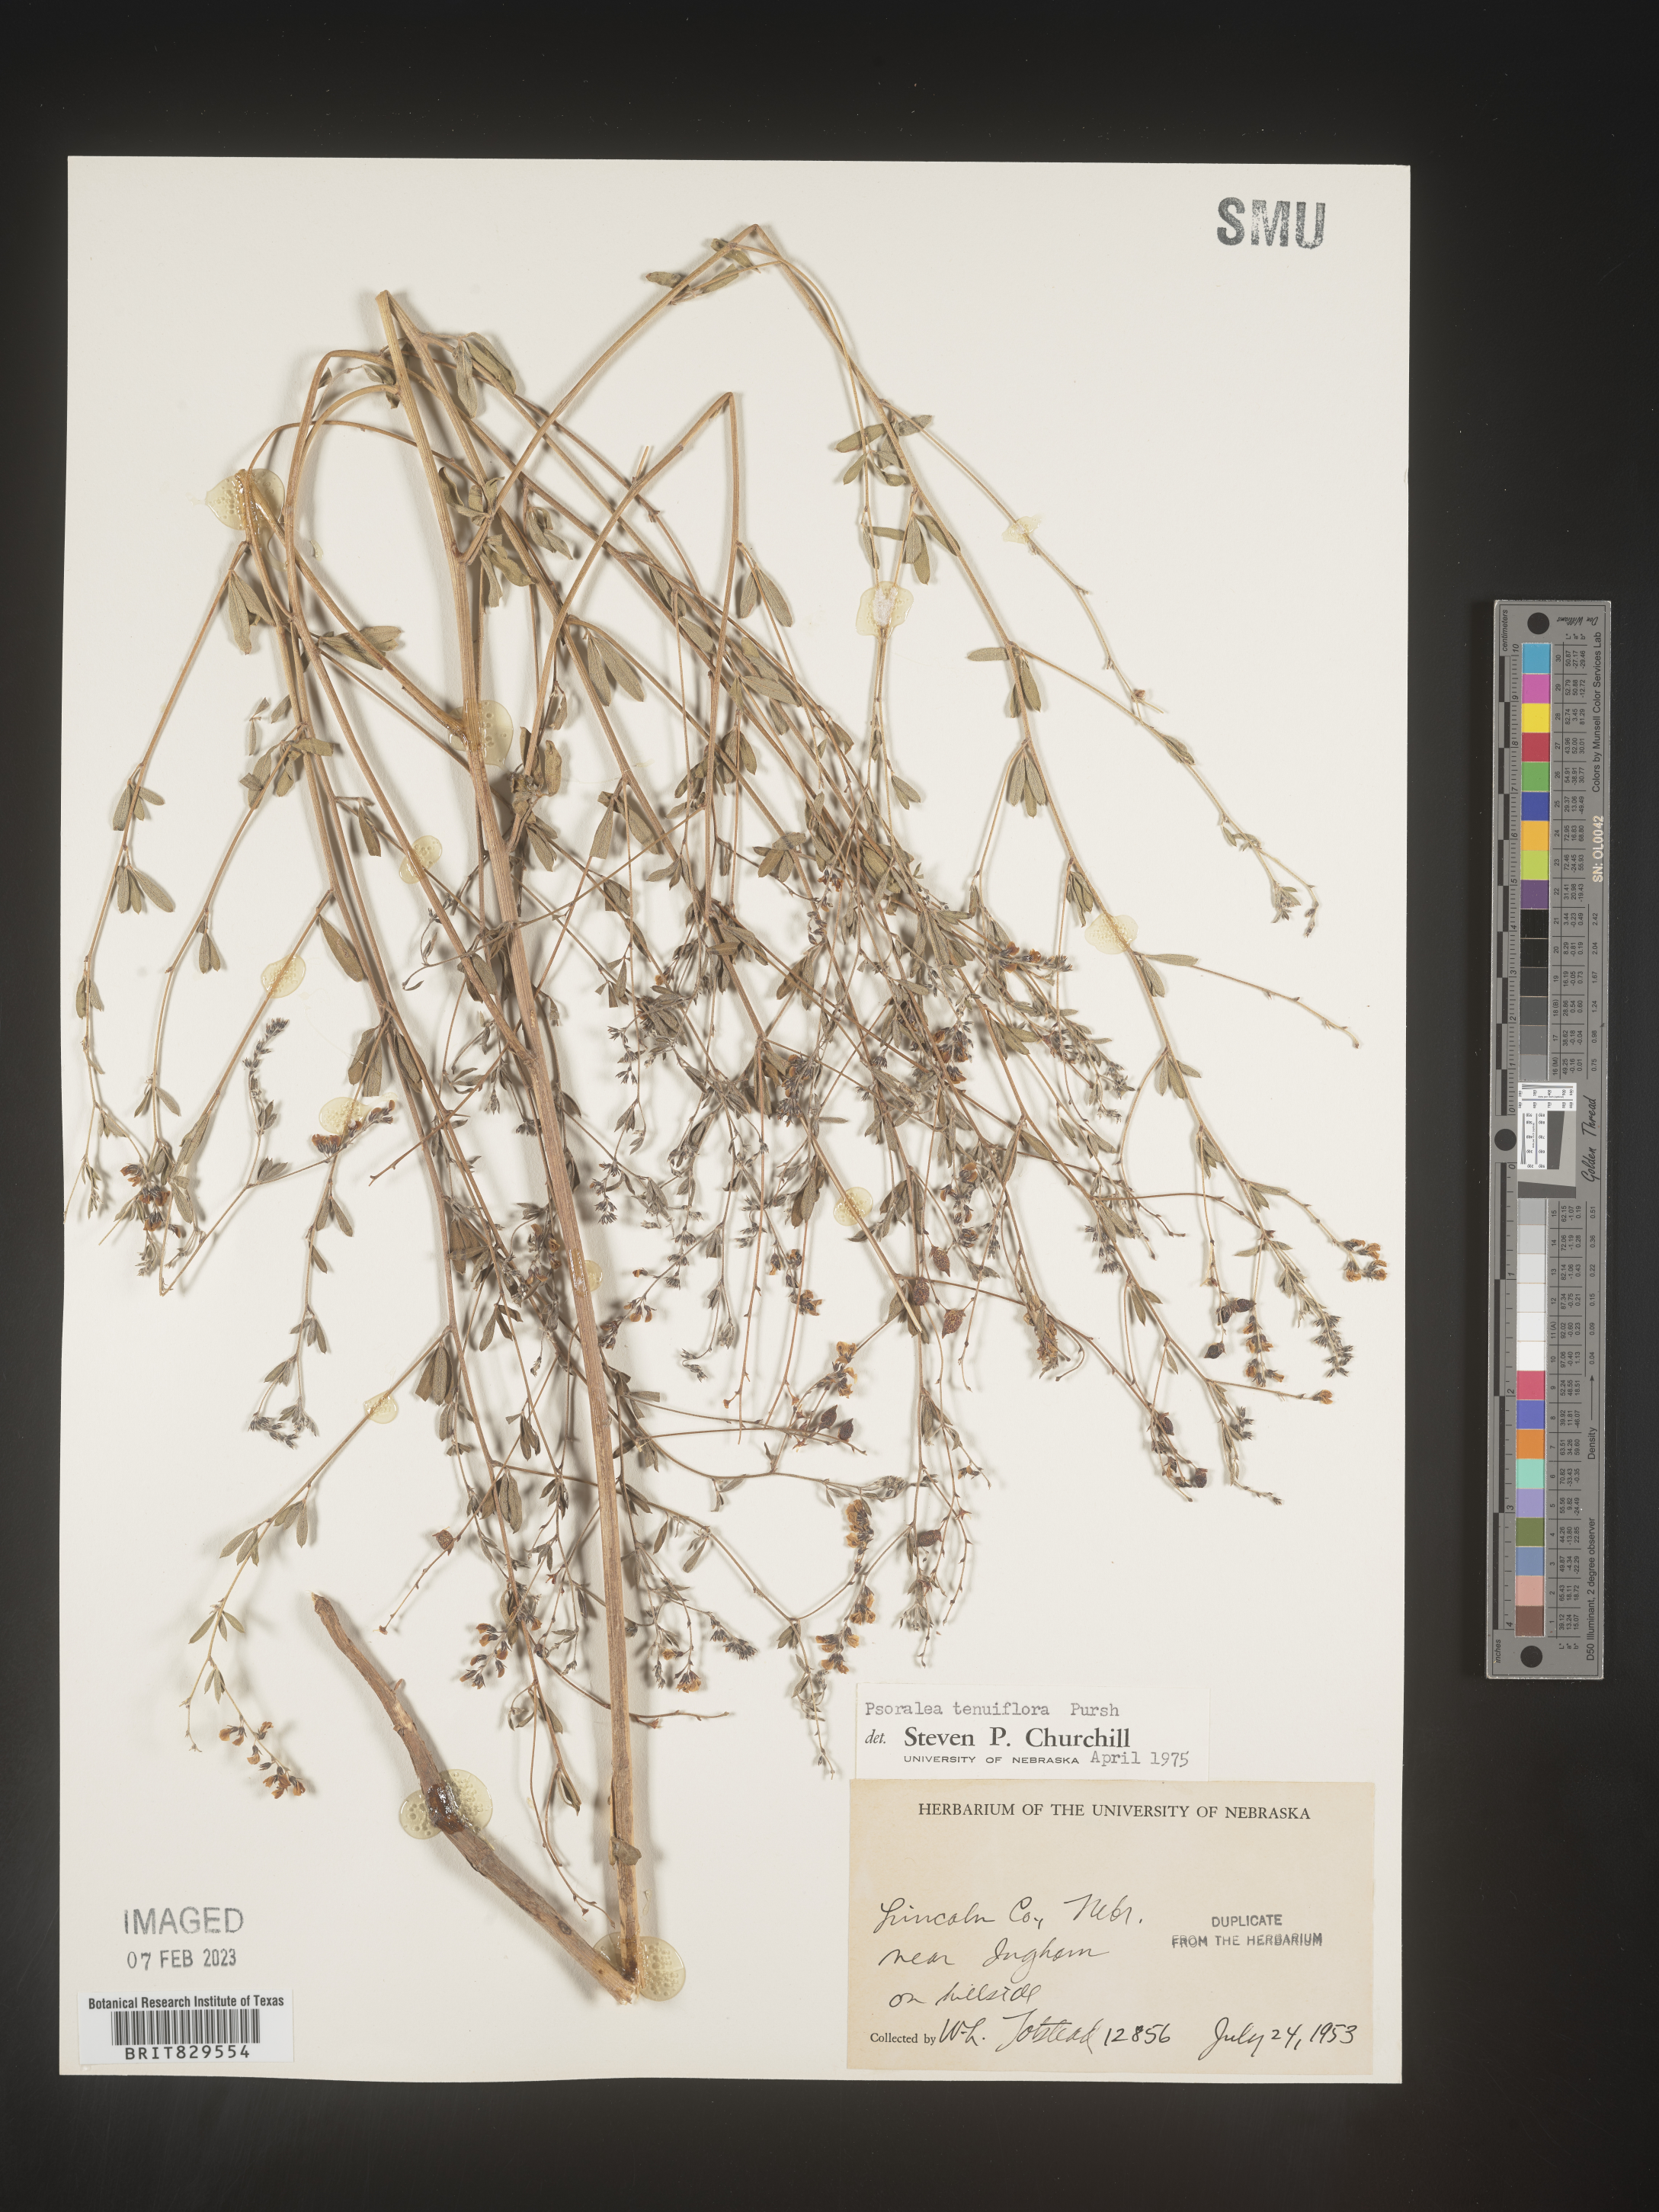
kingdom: Plantae
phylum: Tracheophyta
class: Magnoliopsida
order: Fabales
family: Fabaceae
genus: Pediomelum
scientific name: Pediomelum tenuiflorum
